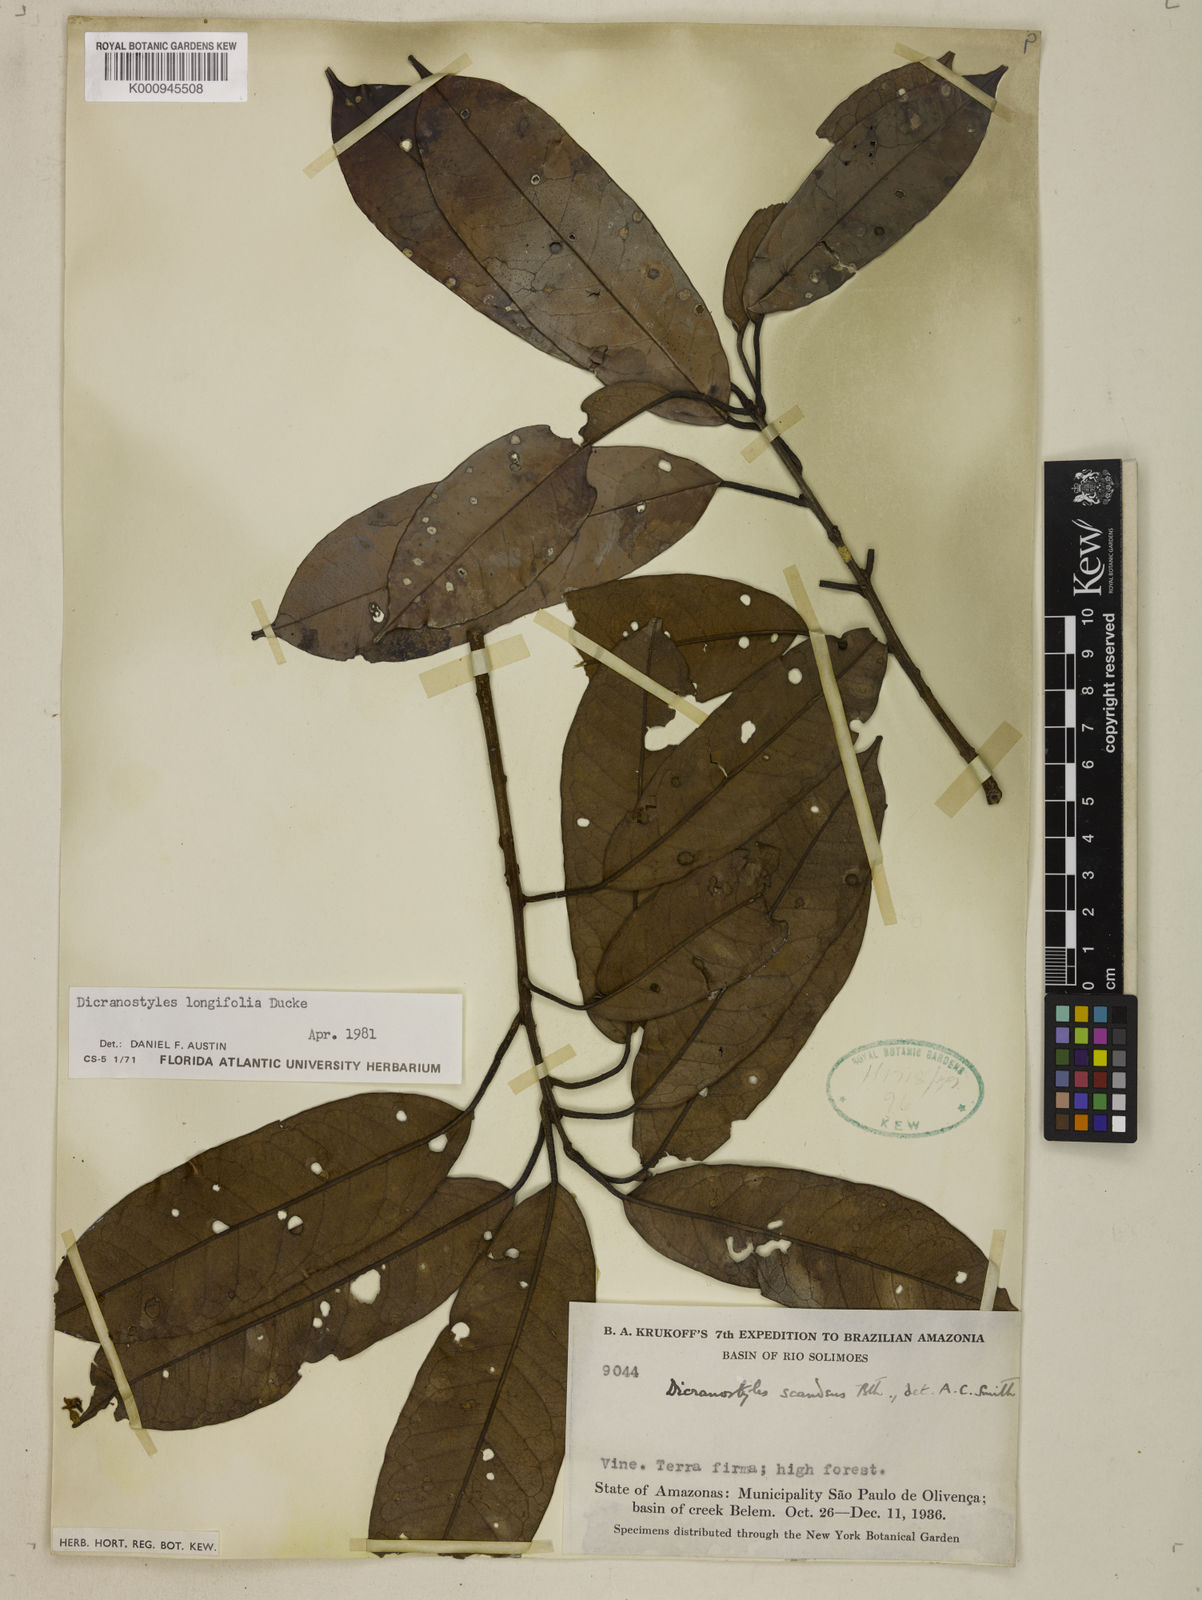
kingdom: Plantae
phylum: Tracheophyta
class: Magnoliopsida
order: Solanales
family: Convolvulaceae
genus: Dicranostyles
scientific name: Dicranostyles longifolia
